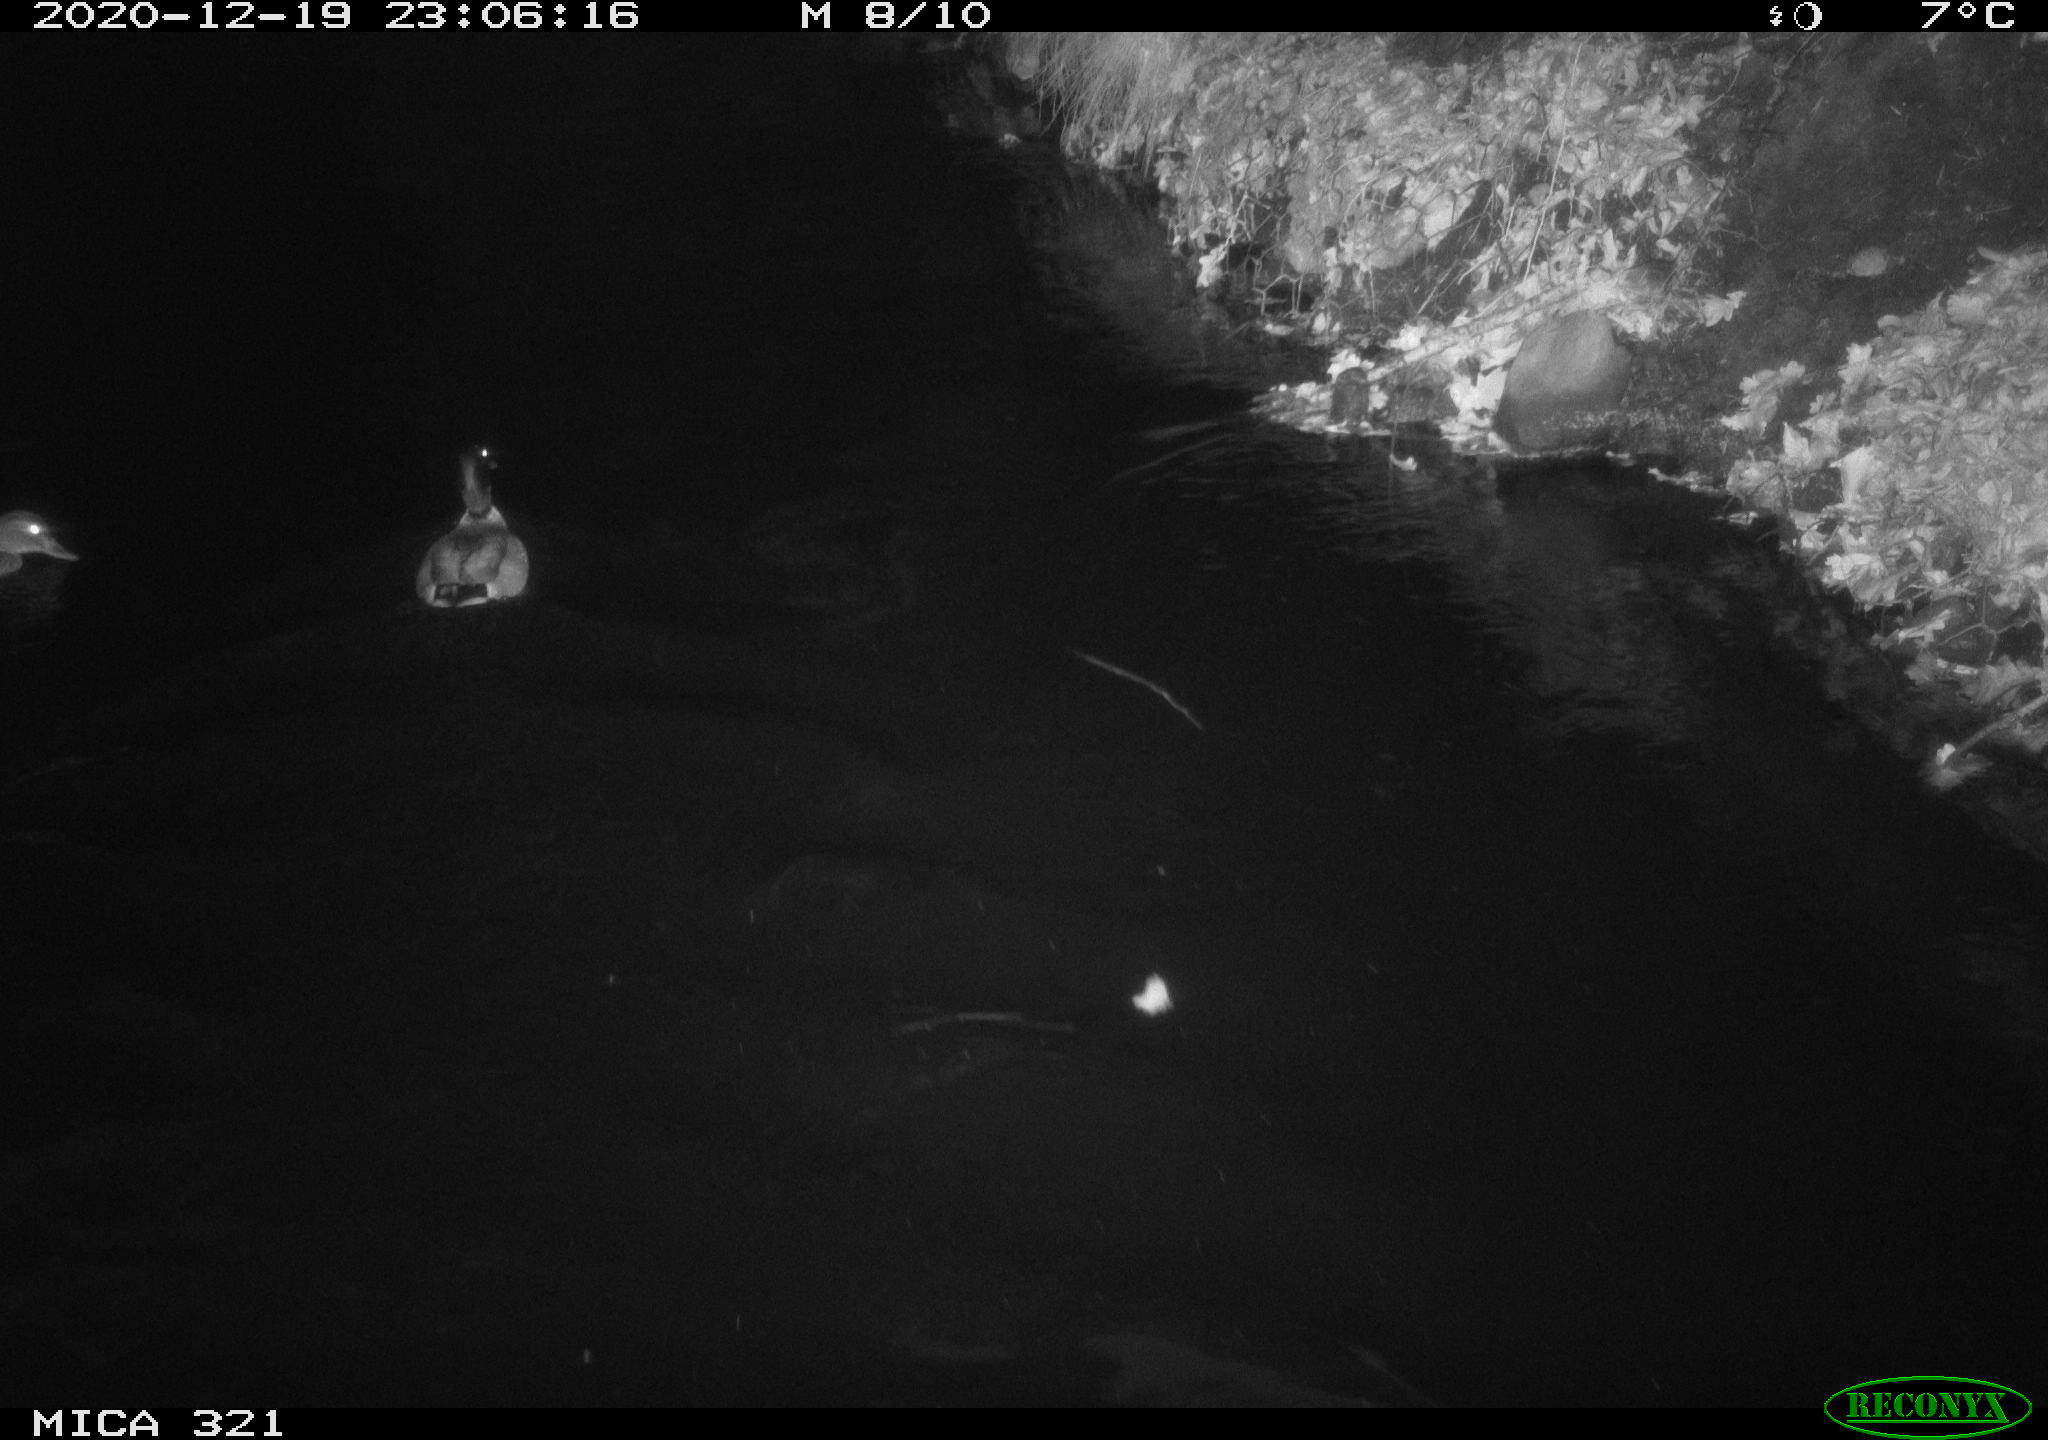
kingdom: Animalia
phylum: Chordata
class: Aves
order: Anseriformes
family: Anatidae
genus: Anas
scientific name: Anas platyrhynchos
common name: Mallard
